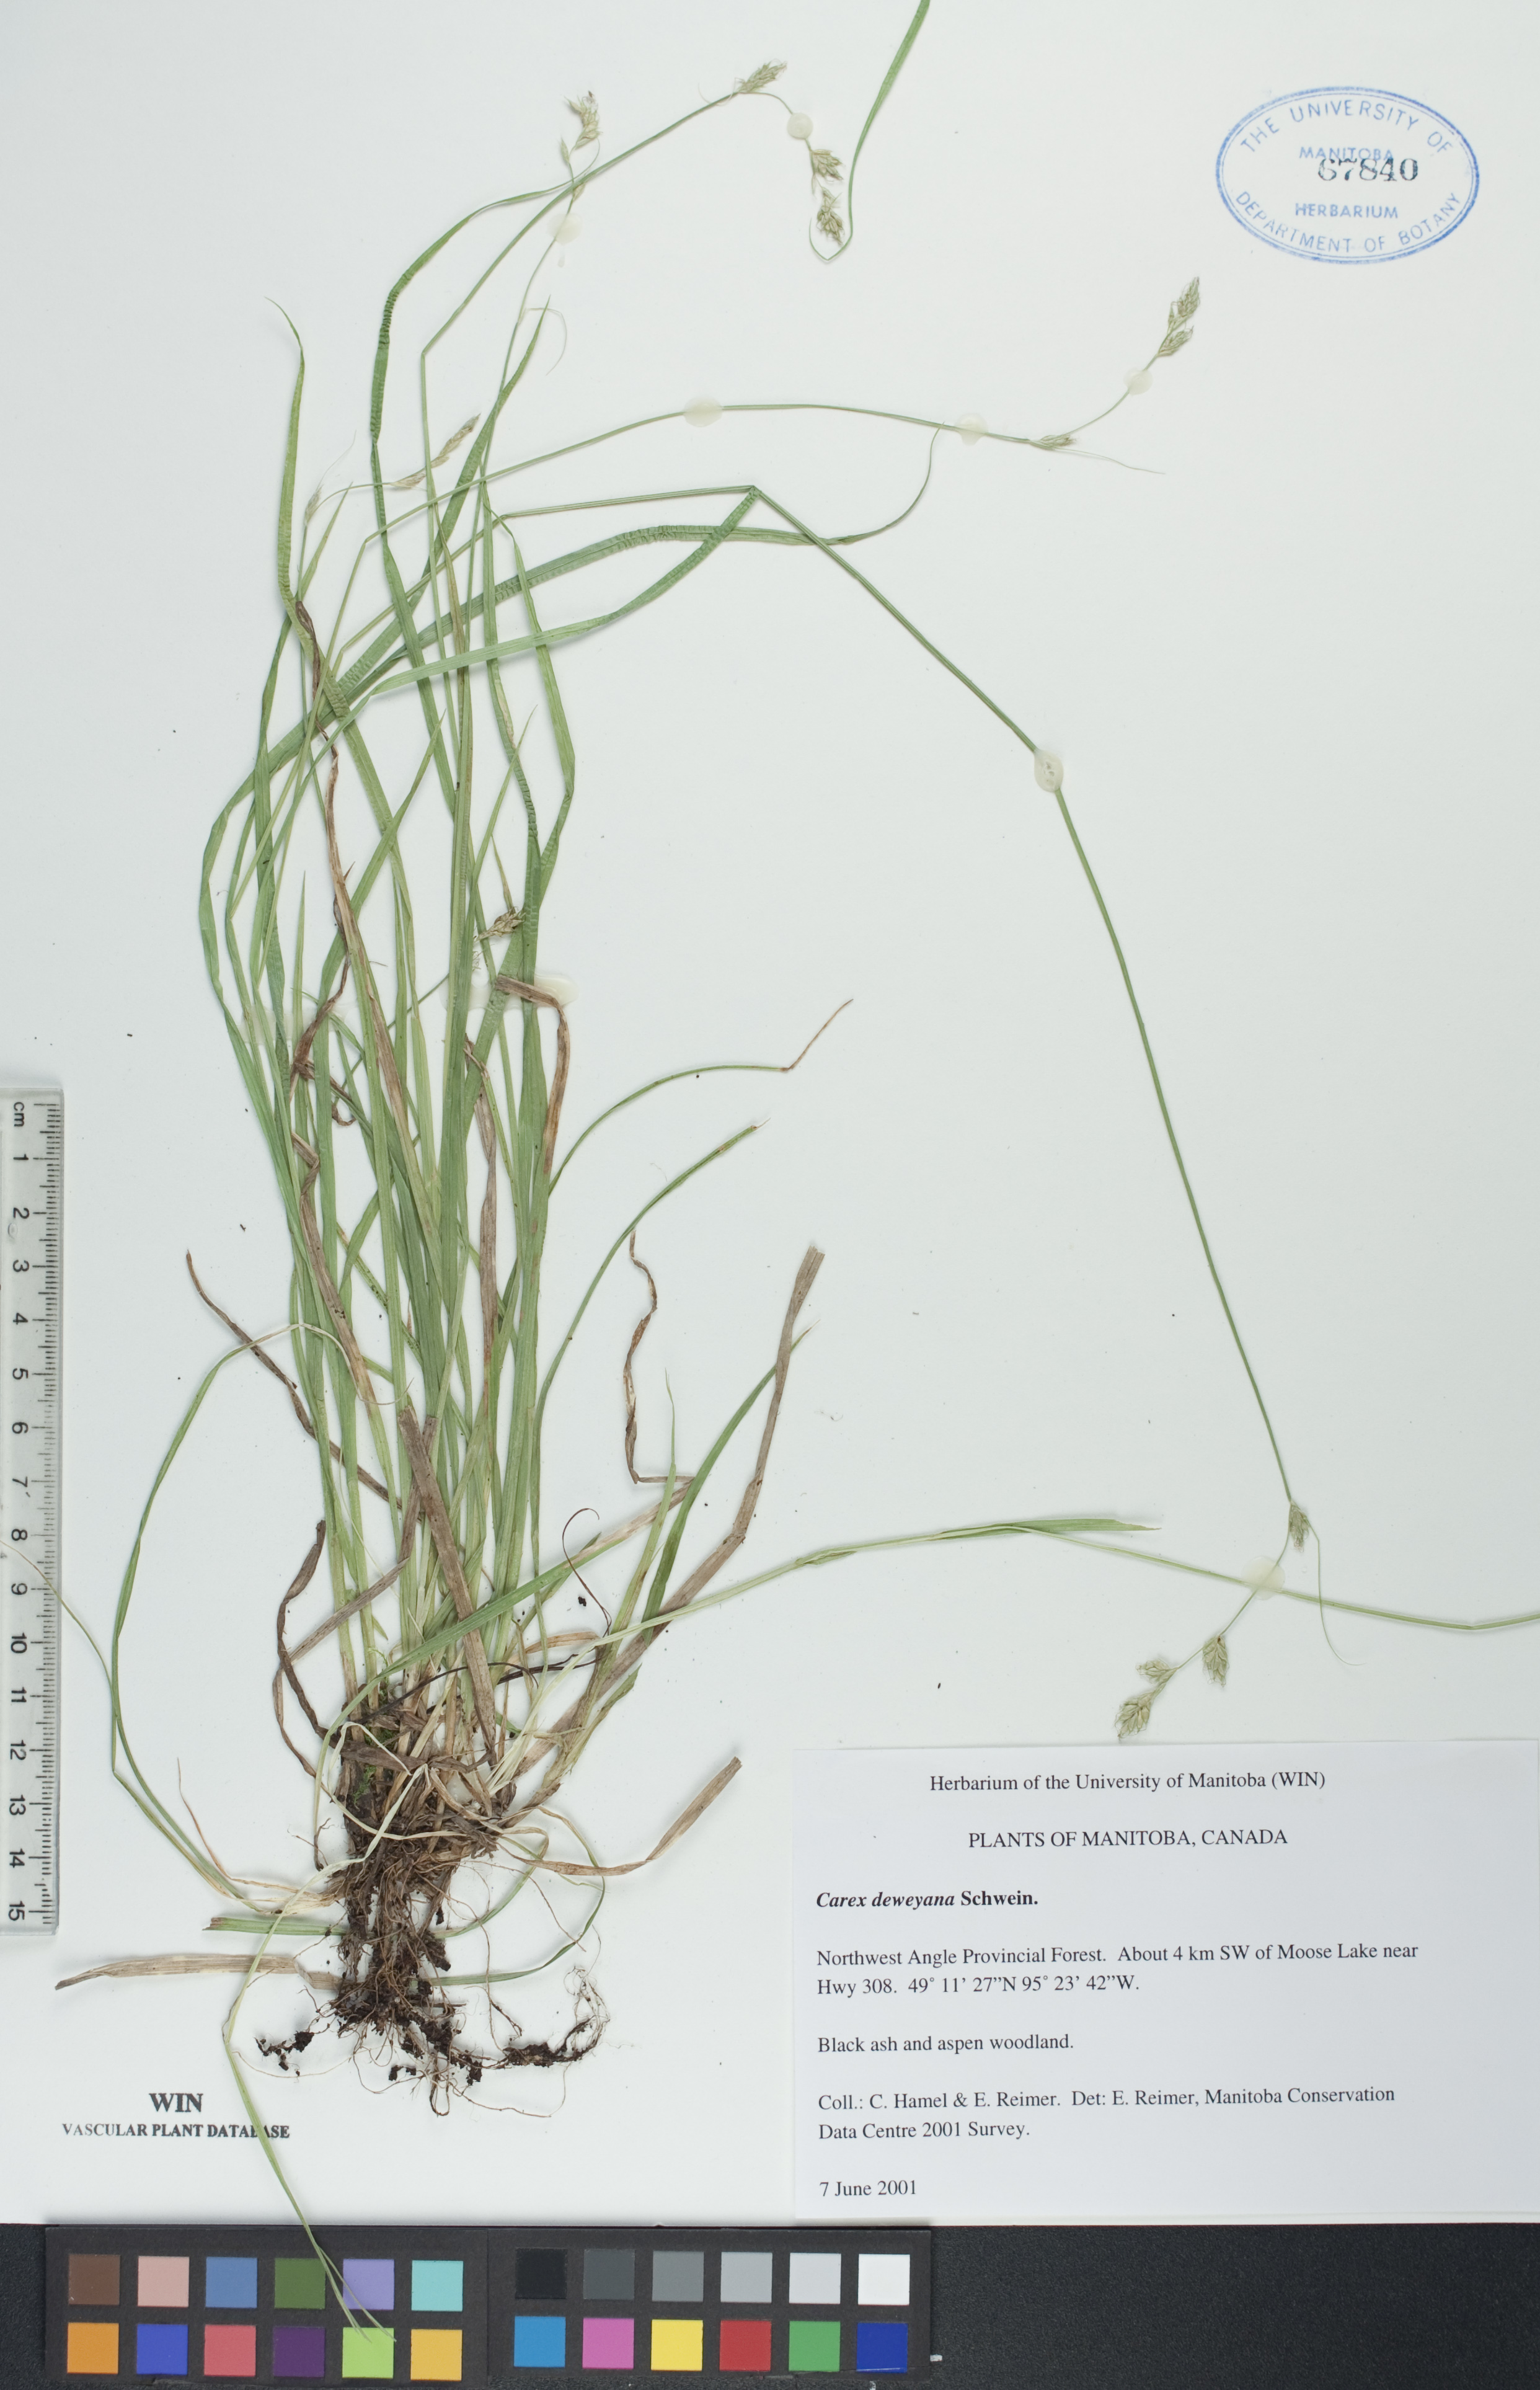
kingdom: Plantae
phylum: Tracheophyta
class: Liliopsida
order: Poales
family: Cyperaceae
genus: Carex
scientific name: Carex deweyana
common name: Dewey's sedge
